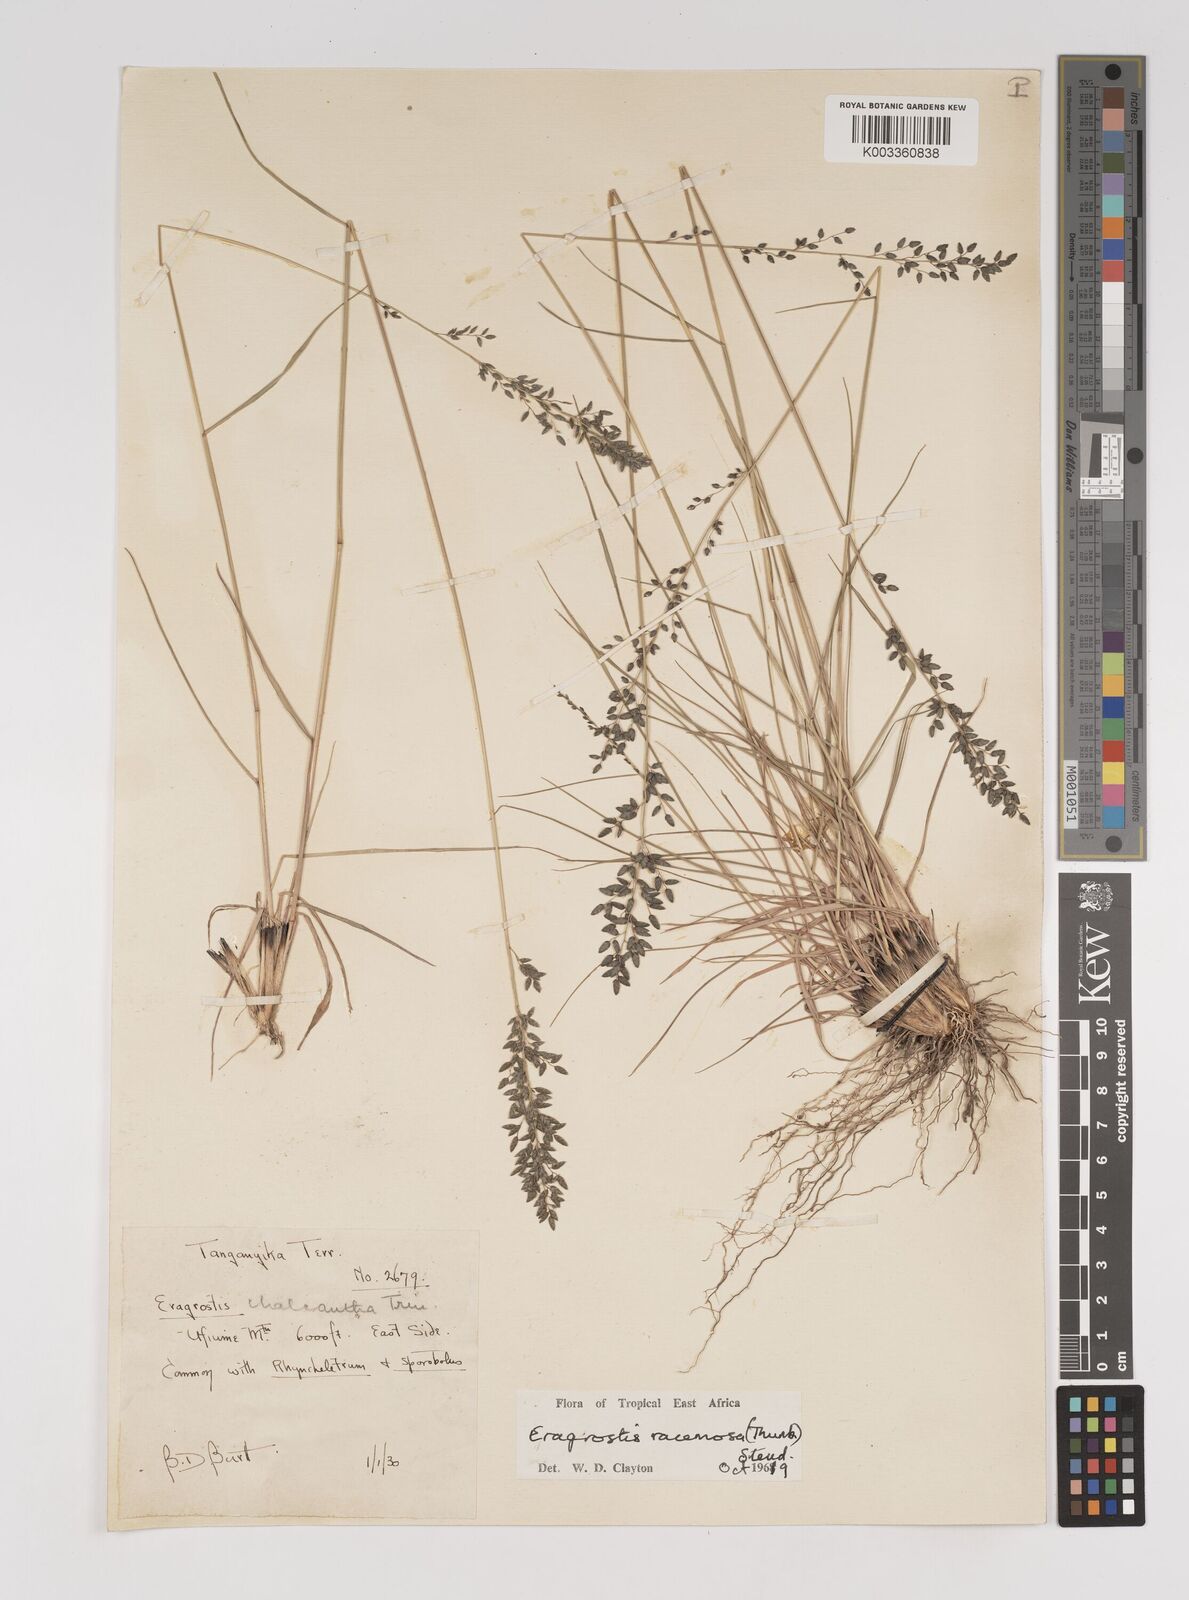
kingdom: Plantae
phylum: Tracheophyta
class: Liliopsida
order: Poales
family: Poaceae
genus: Eragrostis
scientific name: Eragrostis racemosa
